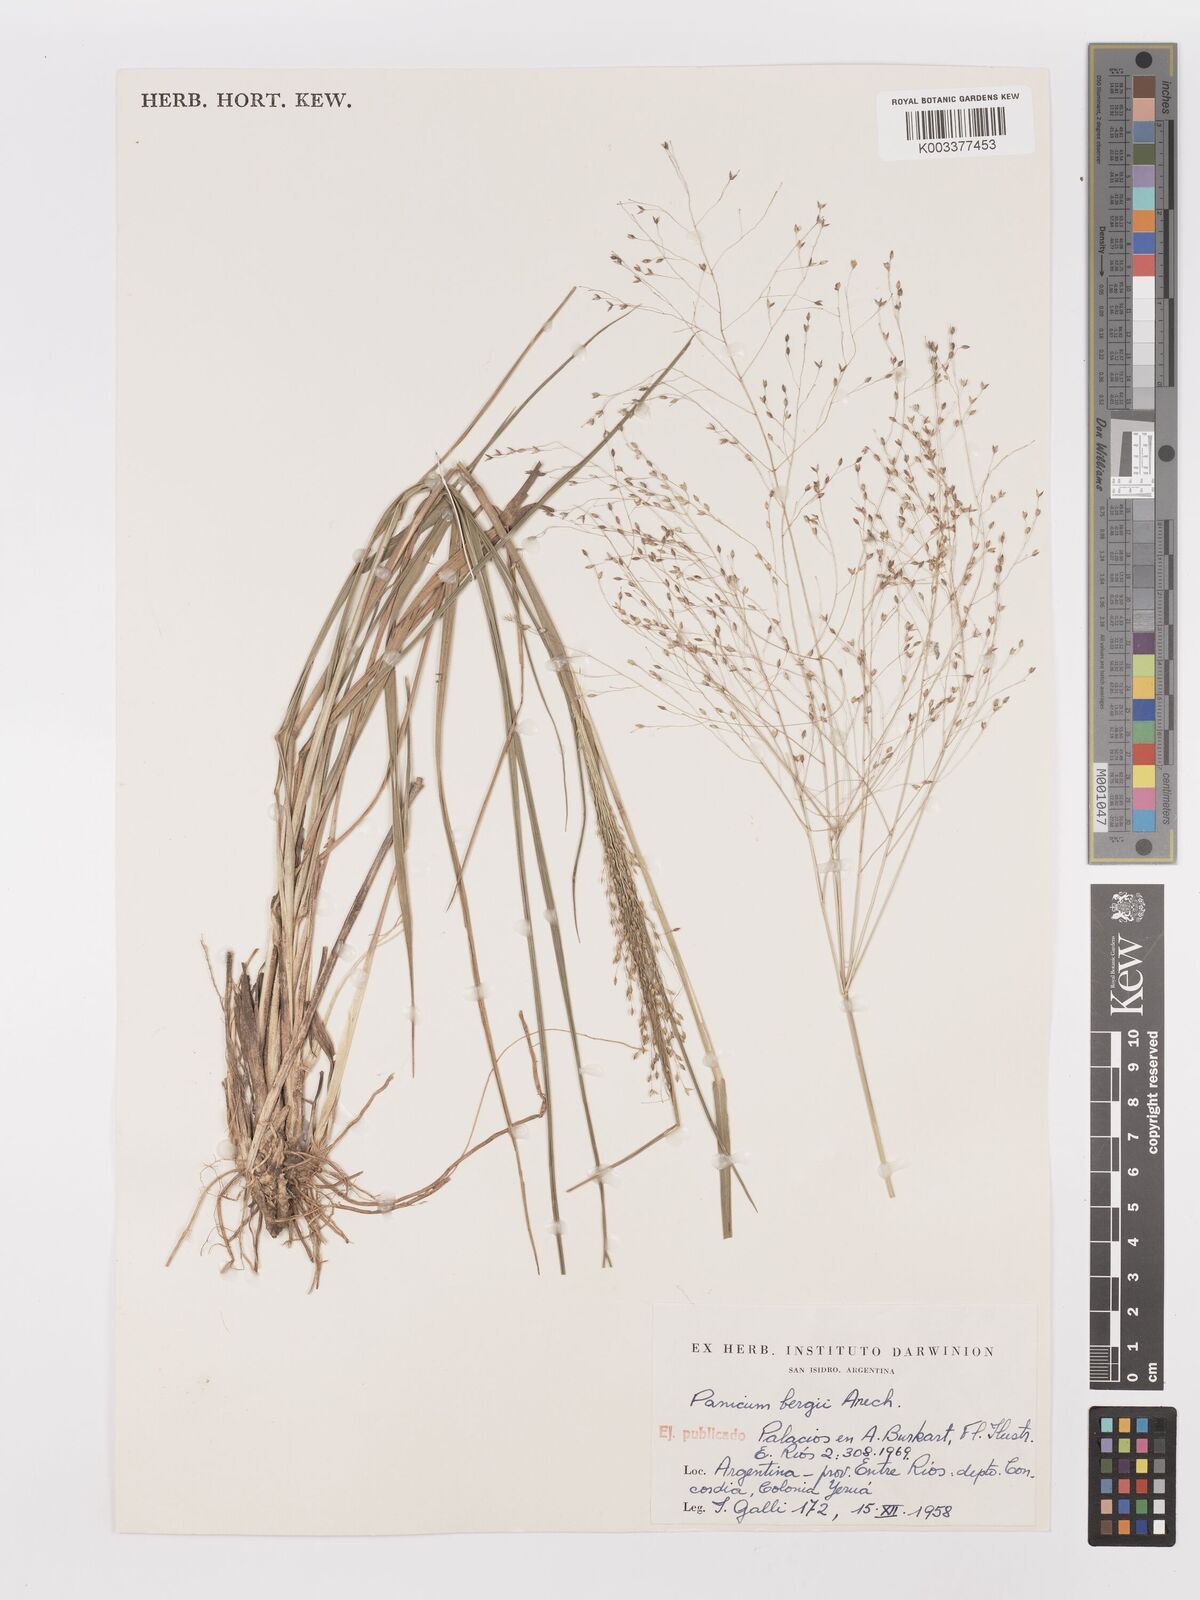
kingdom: Plantae
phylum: Tracheophyta
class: Liliopsida
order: Poales
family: Poaceae
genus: Panicum
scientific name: Panicum bergii
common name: Berg's panicgrass
